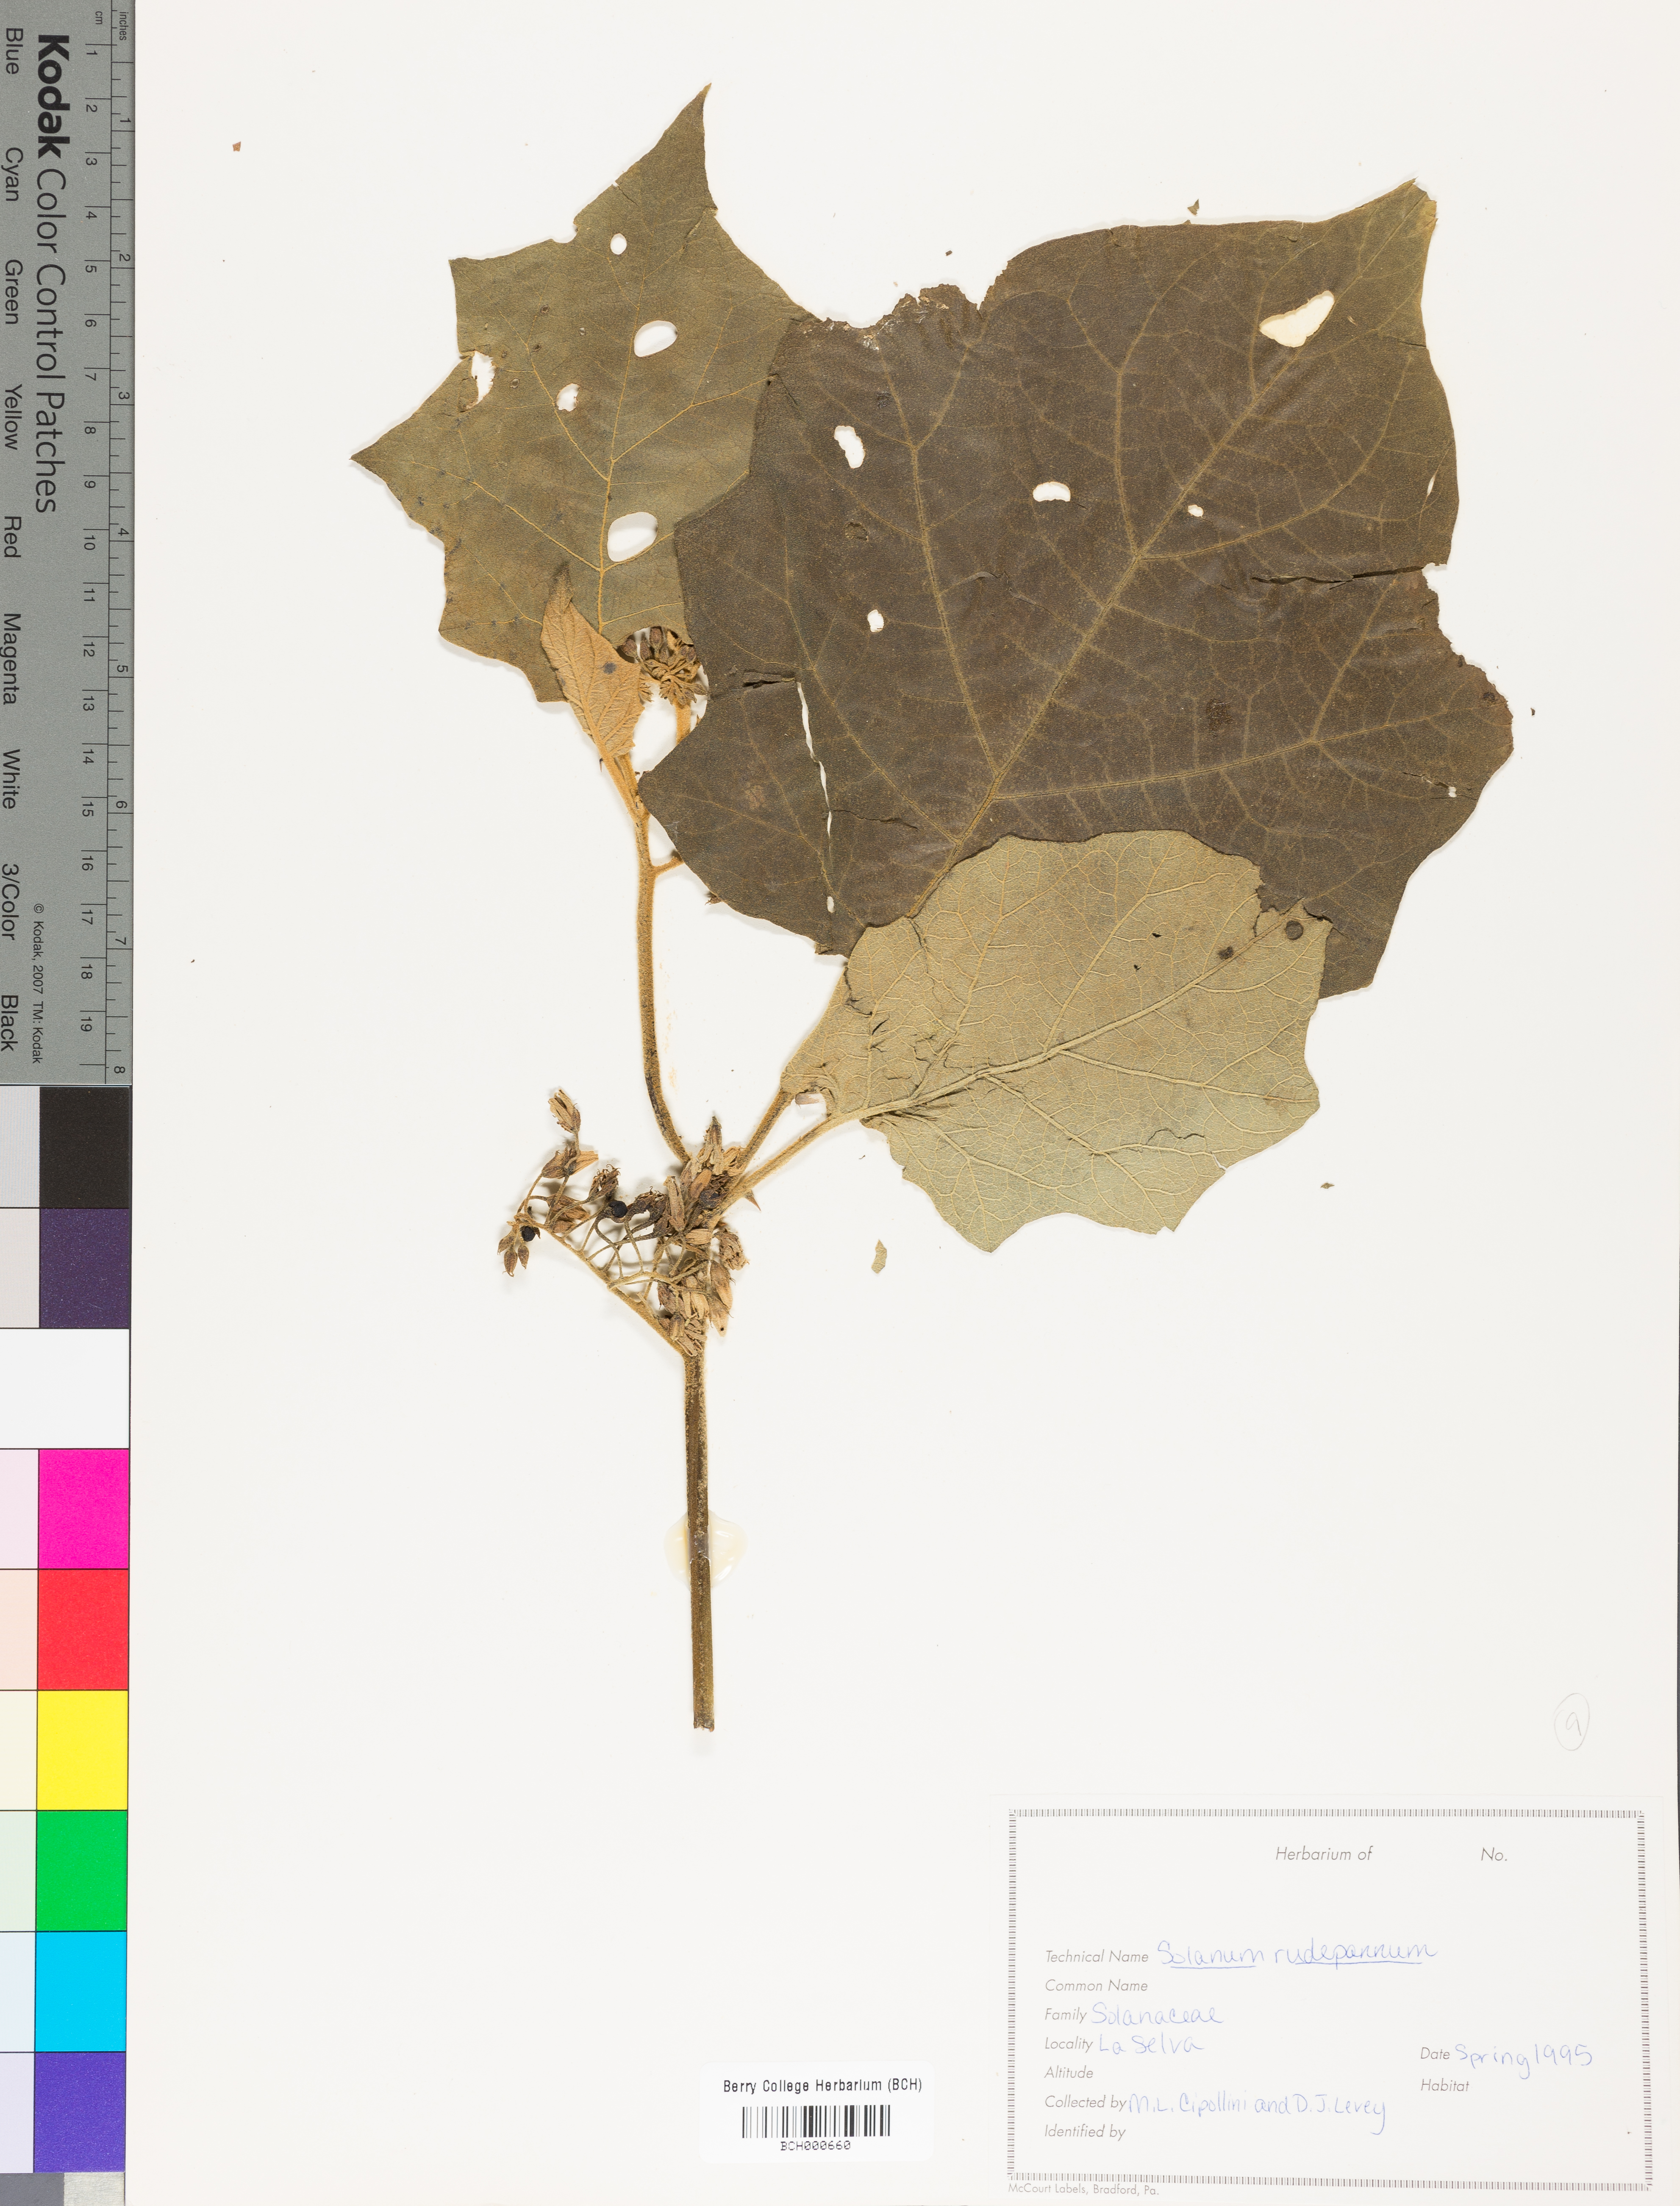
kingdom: Plantae
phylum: Tracheophyta
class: Magnoliopsida
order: Solanales
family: Solanaceae
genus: Solanum
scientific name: Solanum rude-pannum
